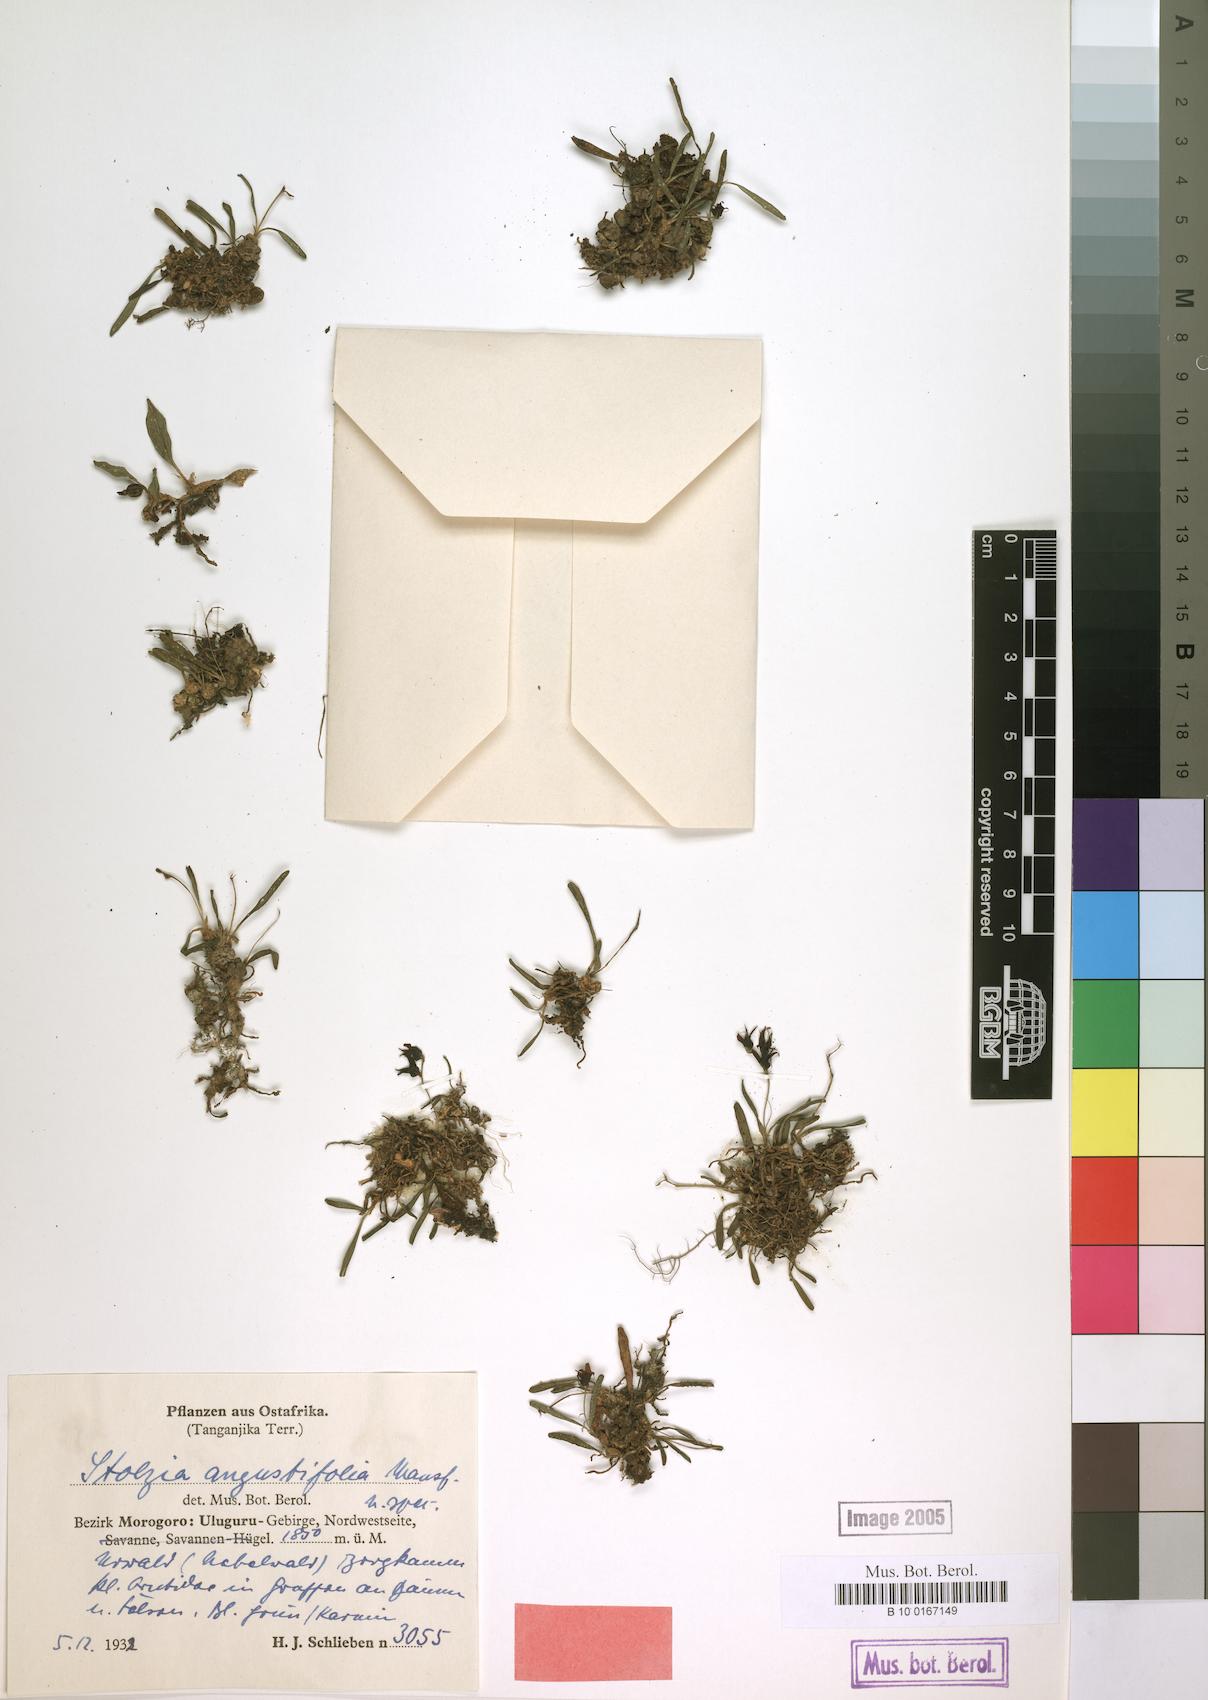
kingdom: Plantae
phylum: Tracheophyta
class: Liliopsida
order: Asparagales
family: Orchidaceae
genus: Porpax
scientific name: Porpax angustifolia
